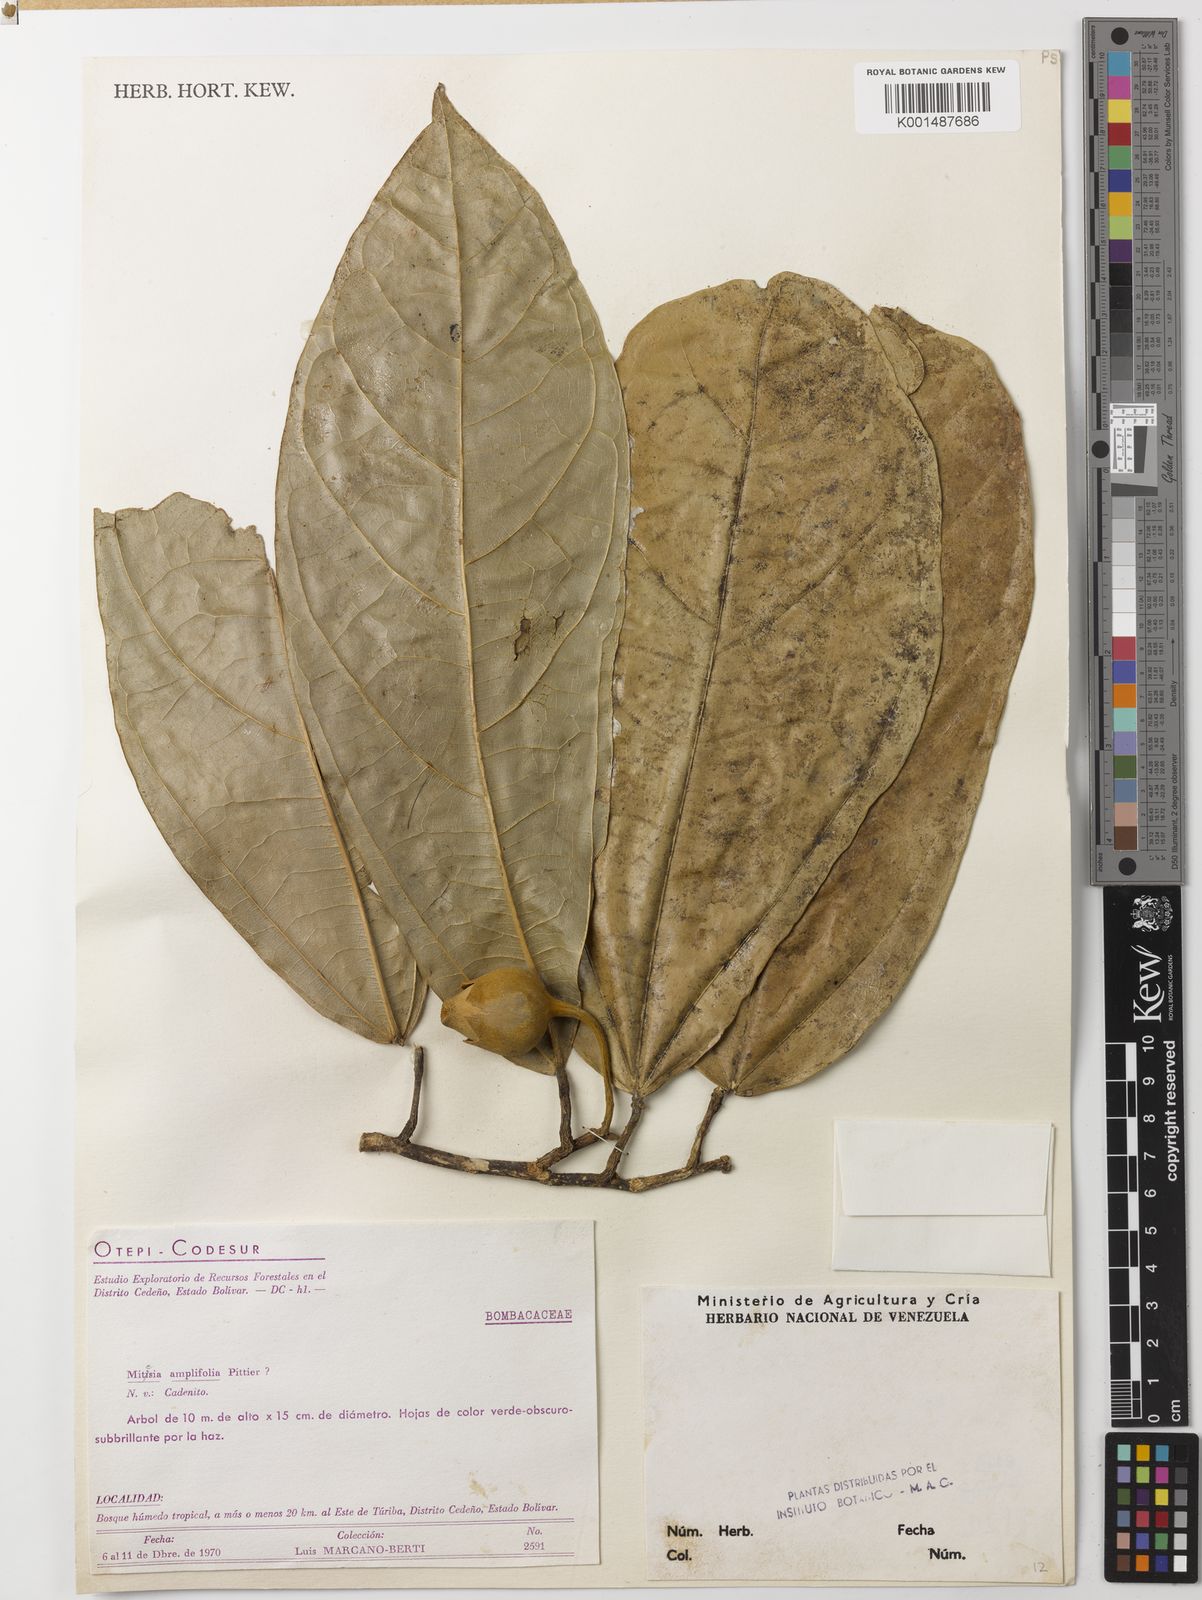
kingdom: Plantae
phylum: Tracheophyta
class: Magnoliopsida
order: Malvales
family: Malvaceae
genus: Matisia
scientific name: Matisia amplifolia
